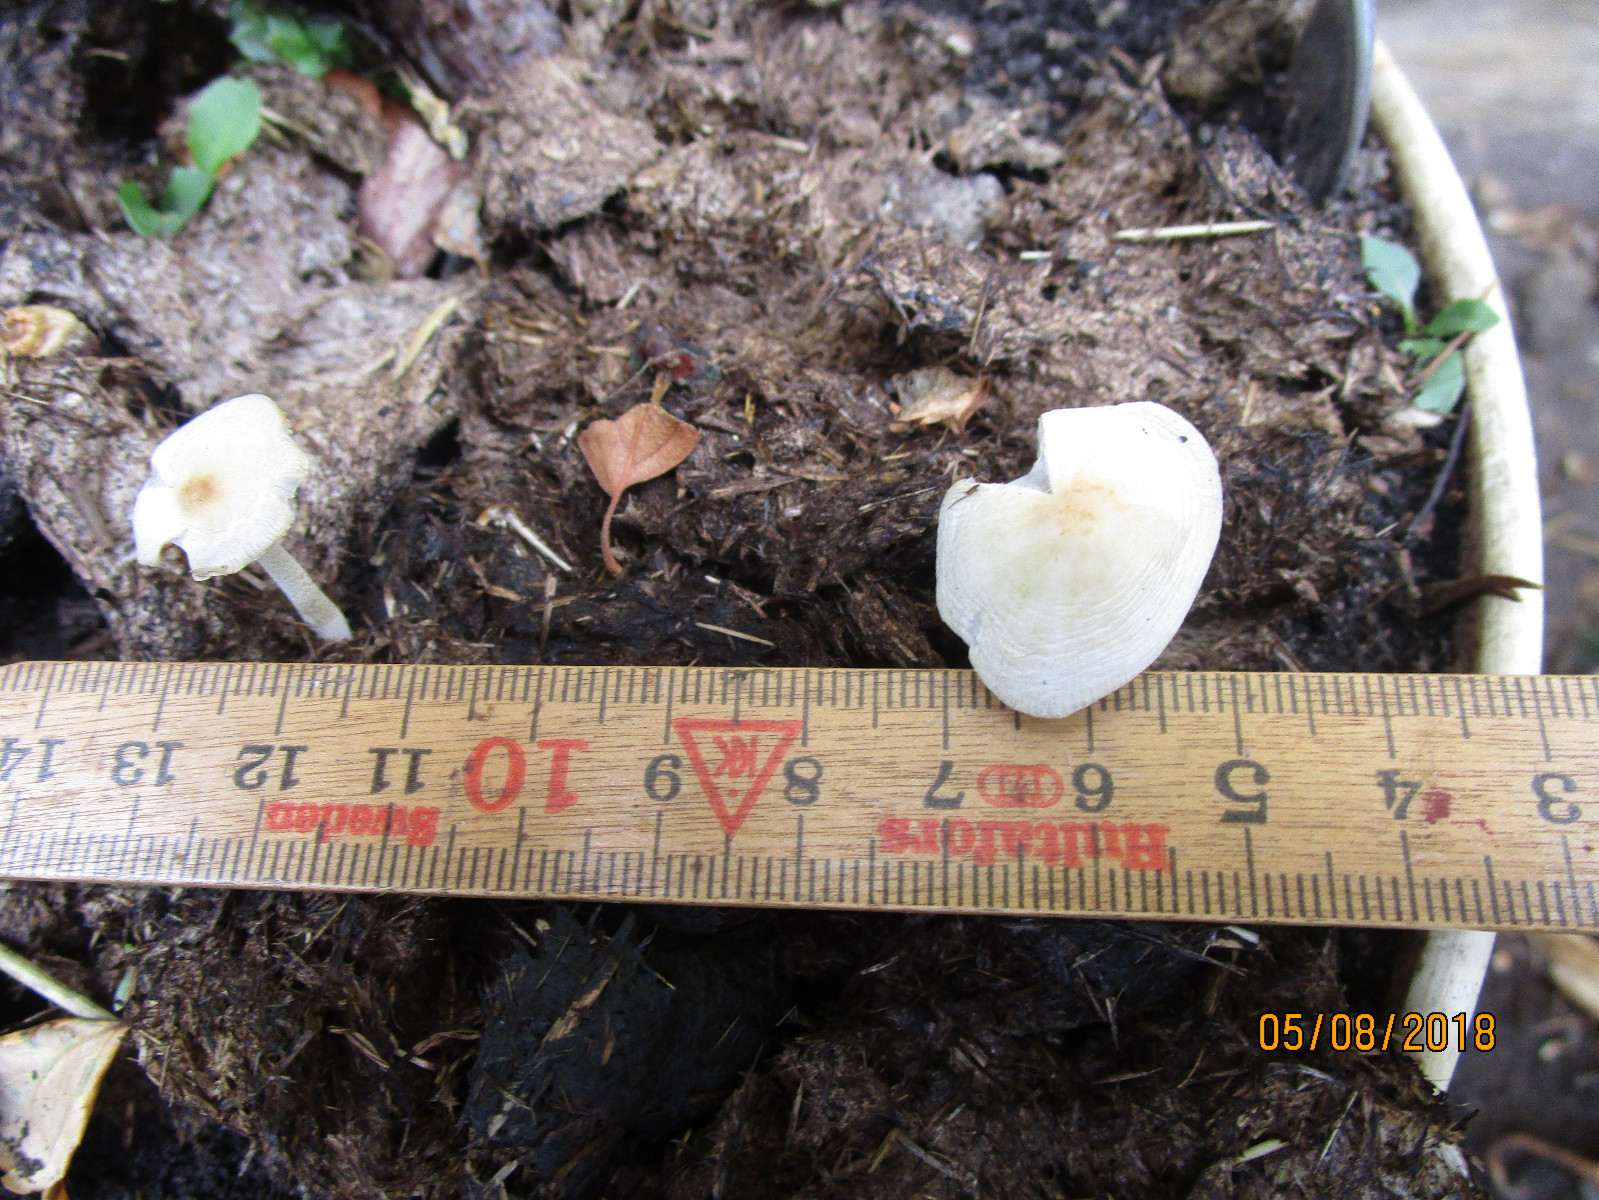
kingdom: Fungi
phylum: Basidiomycota
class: Agaricomycetes
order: Agaricales
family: Bolbitiaceae
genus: Bolbitius
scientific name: Bolbitius
